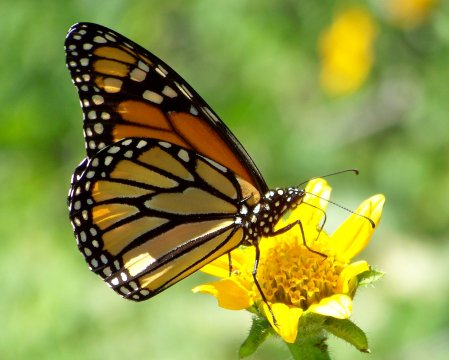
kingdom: Animalia
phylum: Arthropoda
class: Insecta
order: Lepidoptera
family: Nymphalidae
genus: Danaus
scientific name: Danaus plexippus
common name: Monarch
